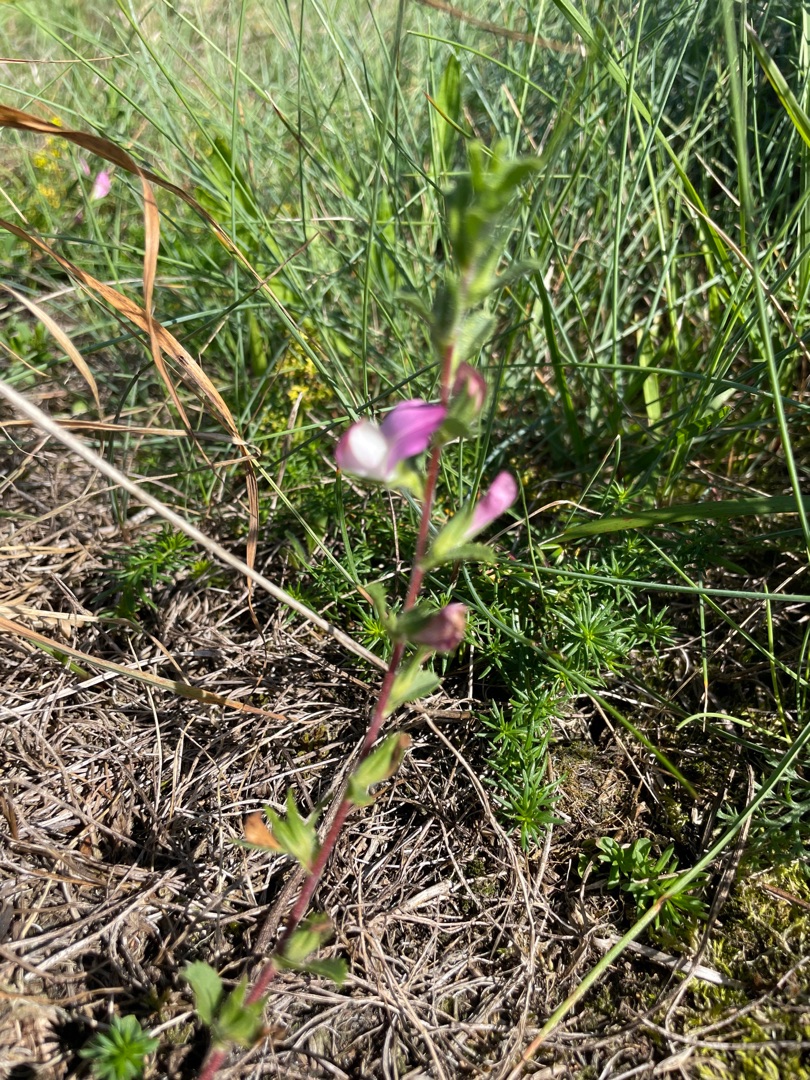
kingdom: Plantae
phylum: Tracheophyta
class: Magnoliopsida
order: Fabales
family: Fabaceae
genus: Ononis
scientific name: Ononis spinosa
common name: Krageklo
